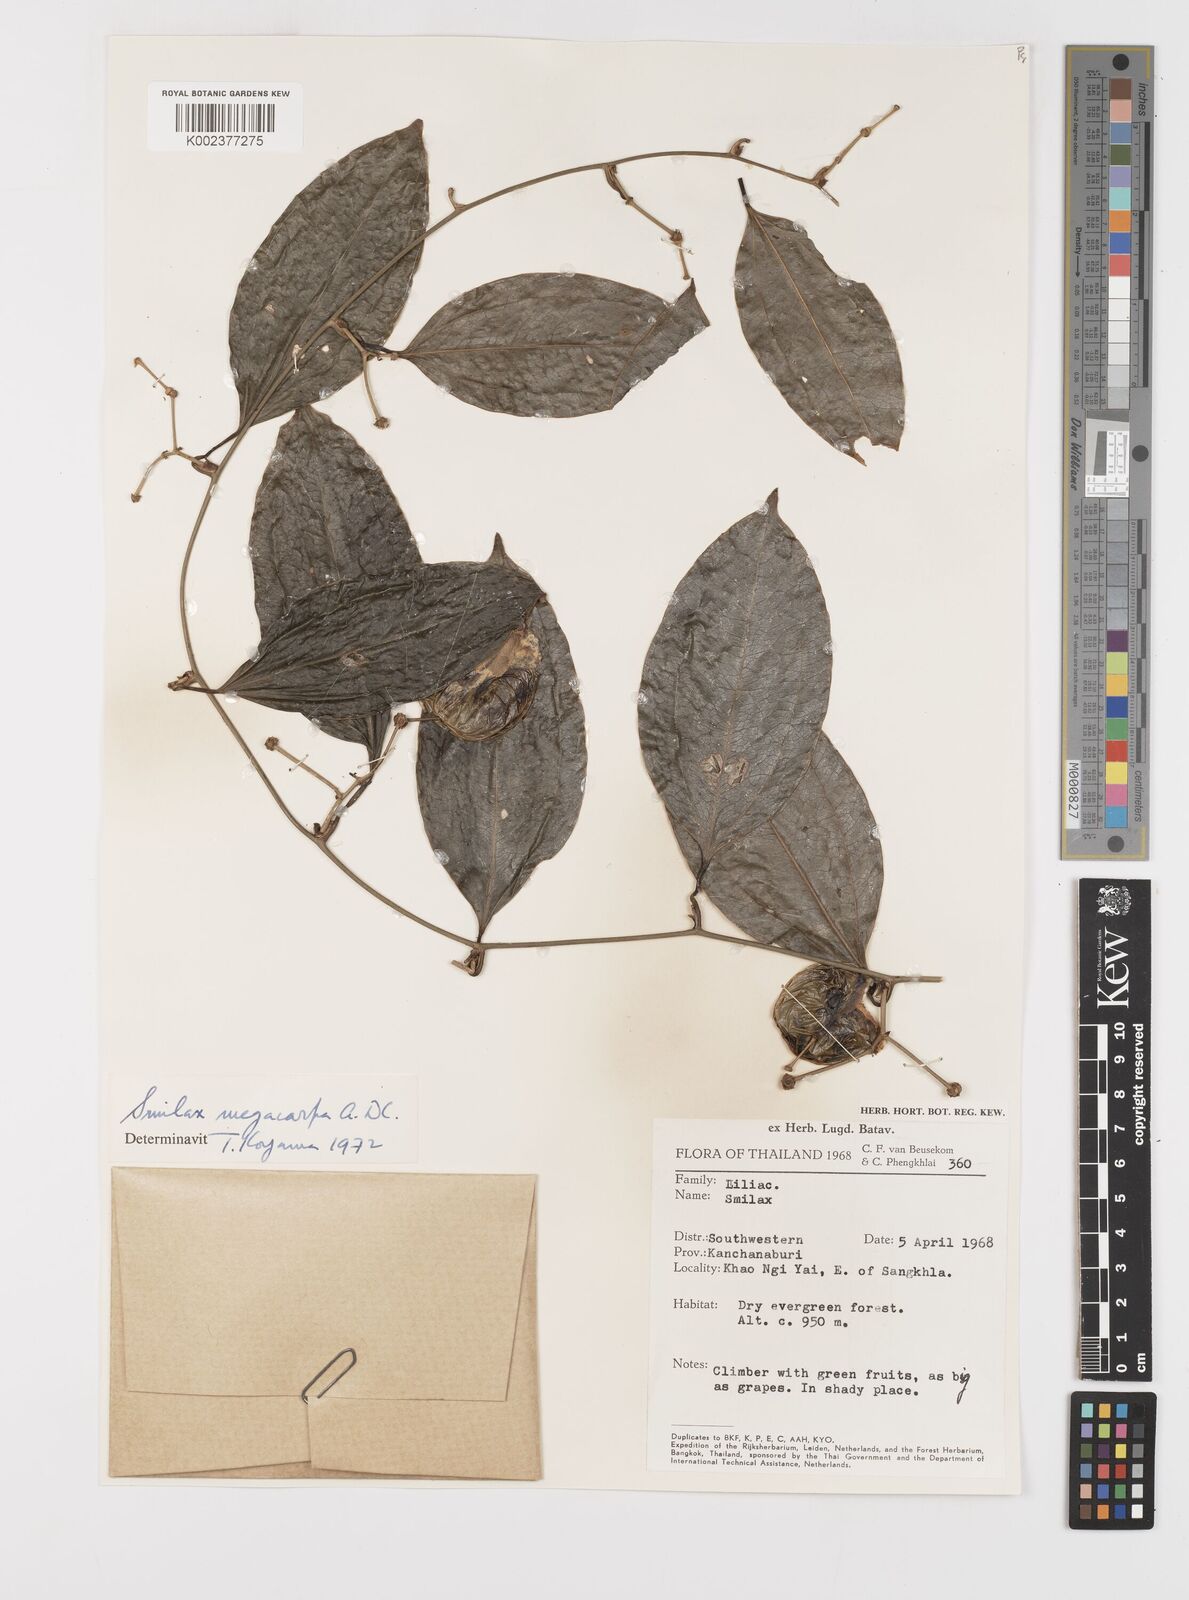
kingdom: Plantae
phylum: Tracheophyta
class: Liliopsida
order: Liliales
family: Smilacaceae
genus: Smilax
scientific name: Smilax megacarpa
